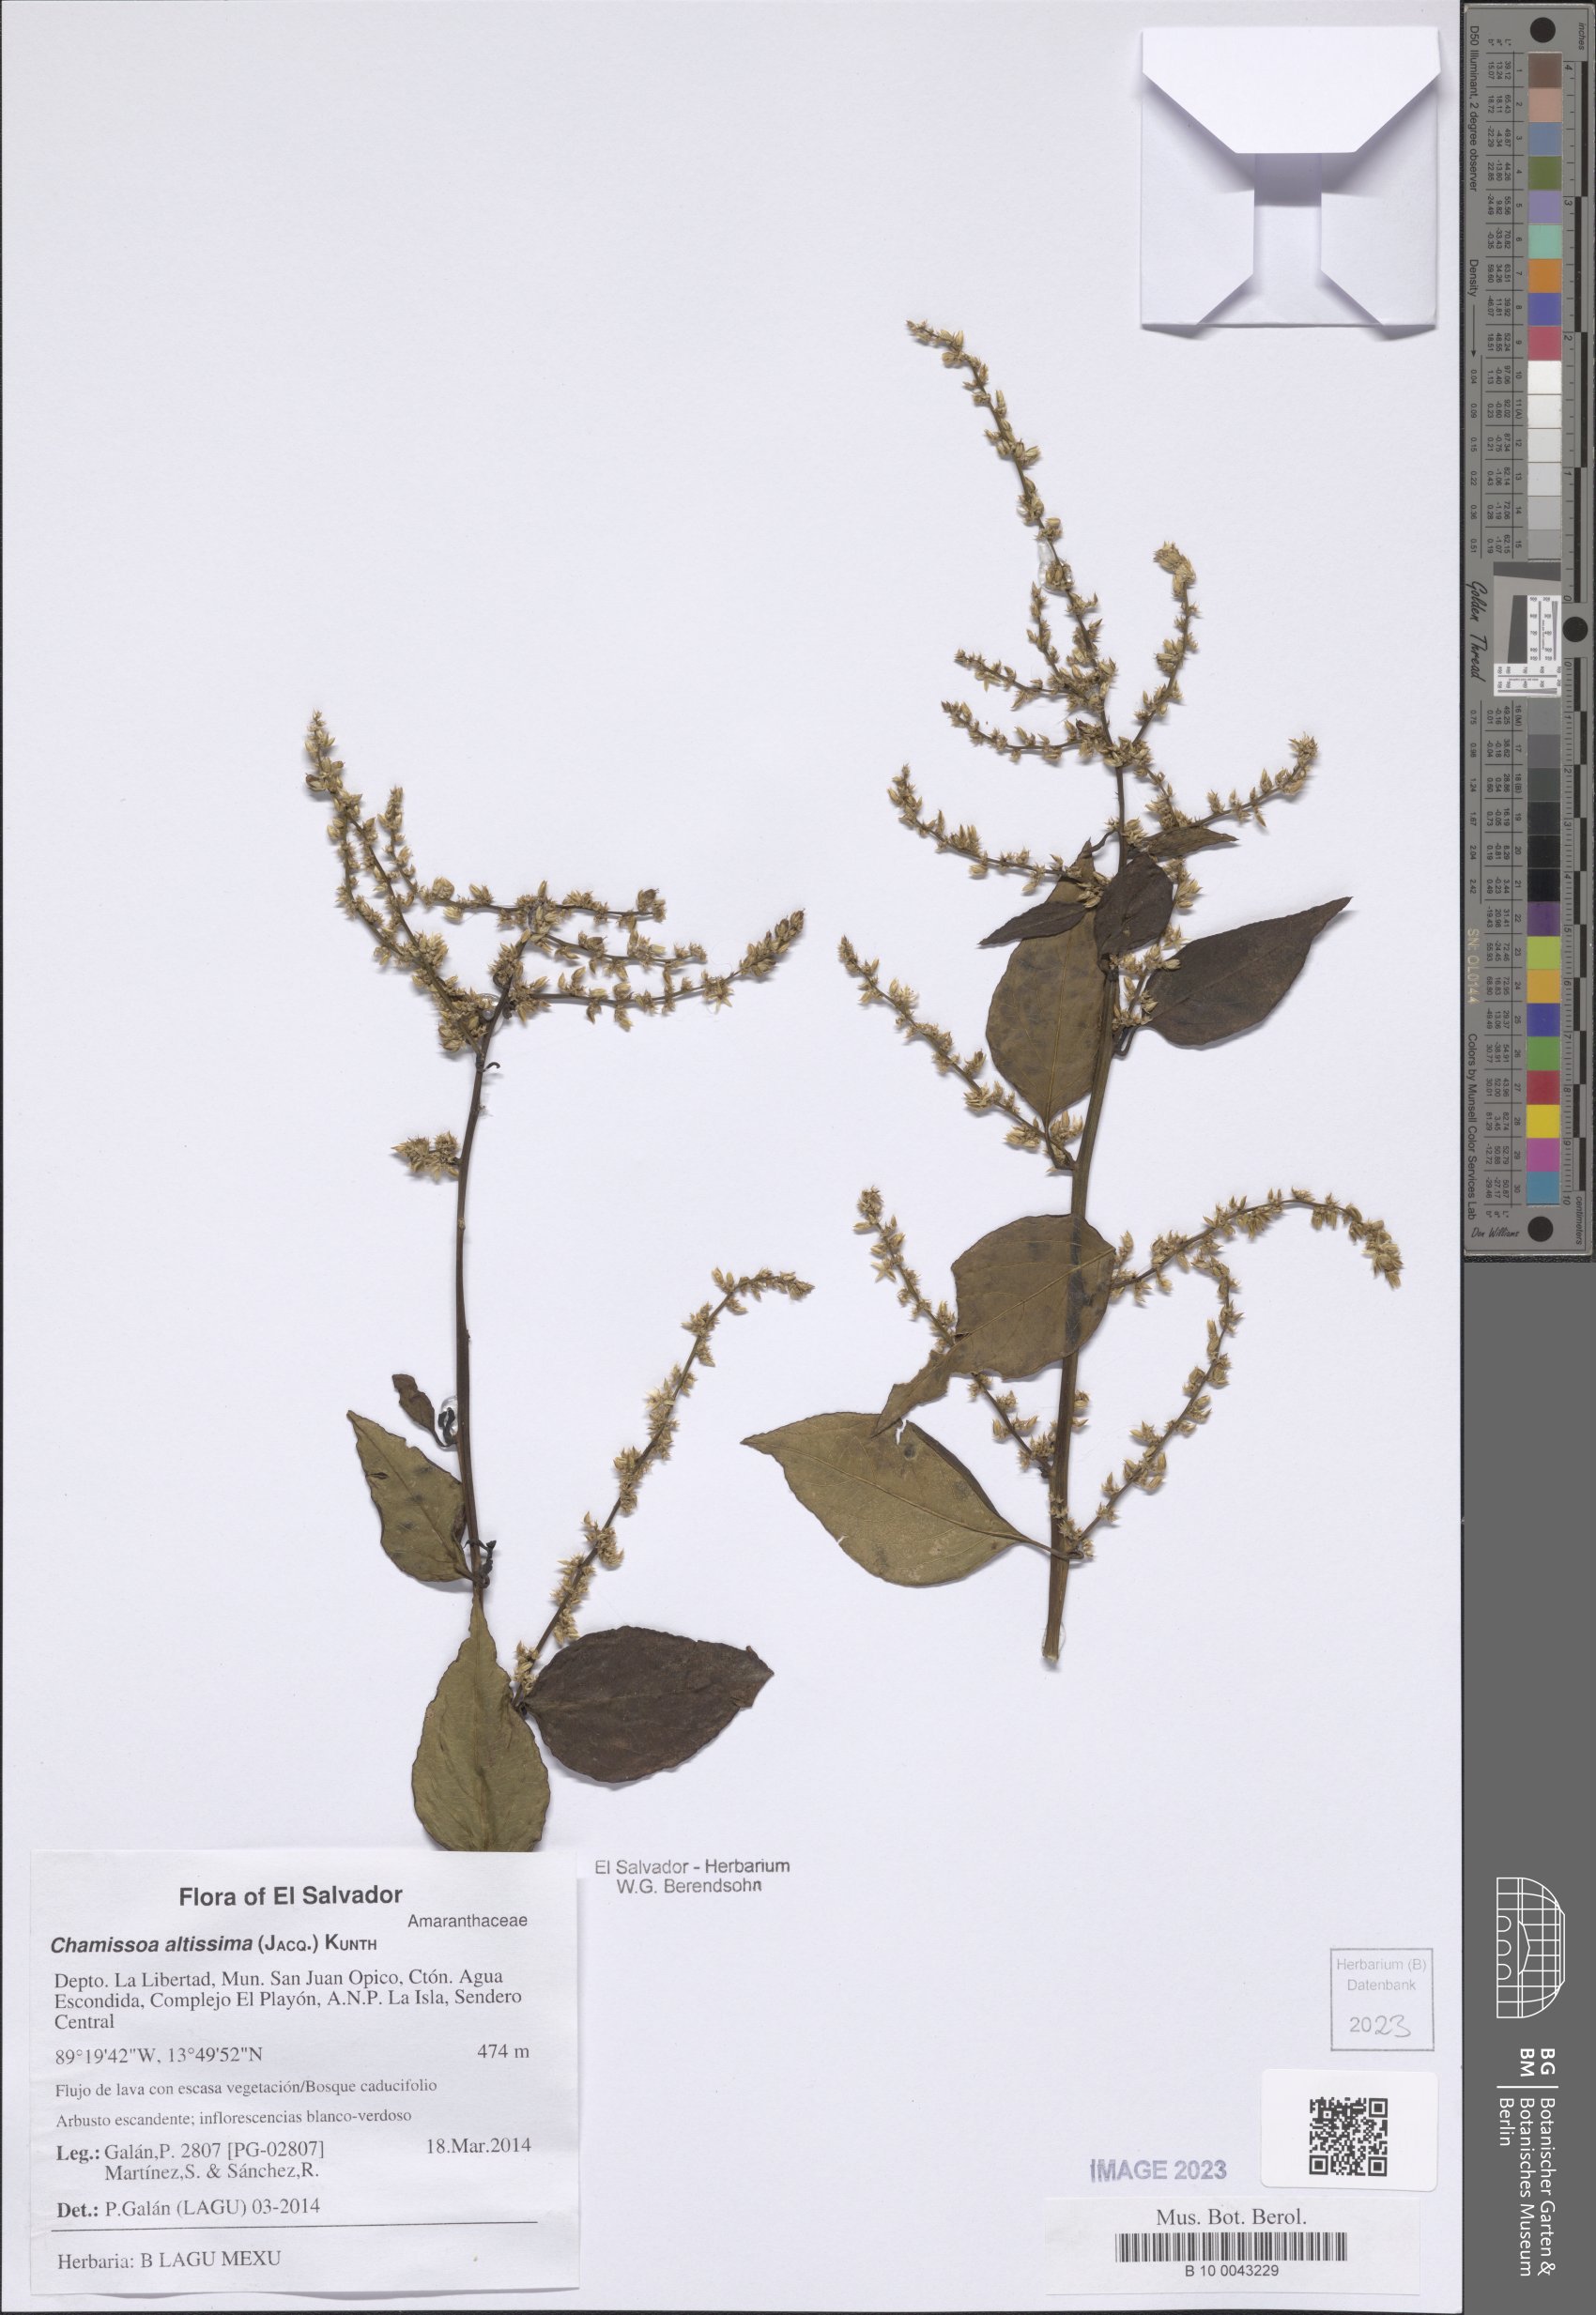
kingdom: Plantae
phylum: Tracheophyta
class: Magnoliopsida
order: Caryophyllales
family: Amaranthaceae
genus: Chamissoa
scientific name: Chamissoa altissima
